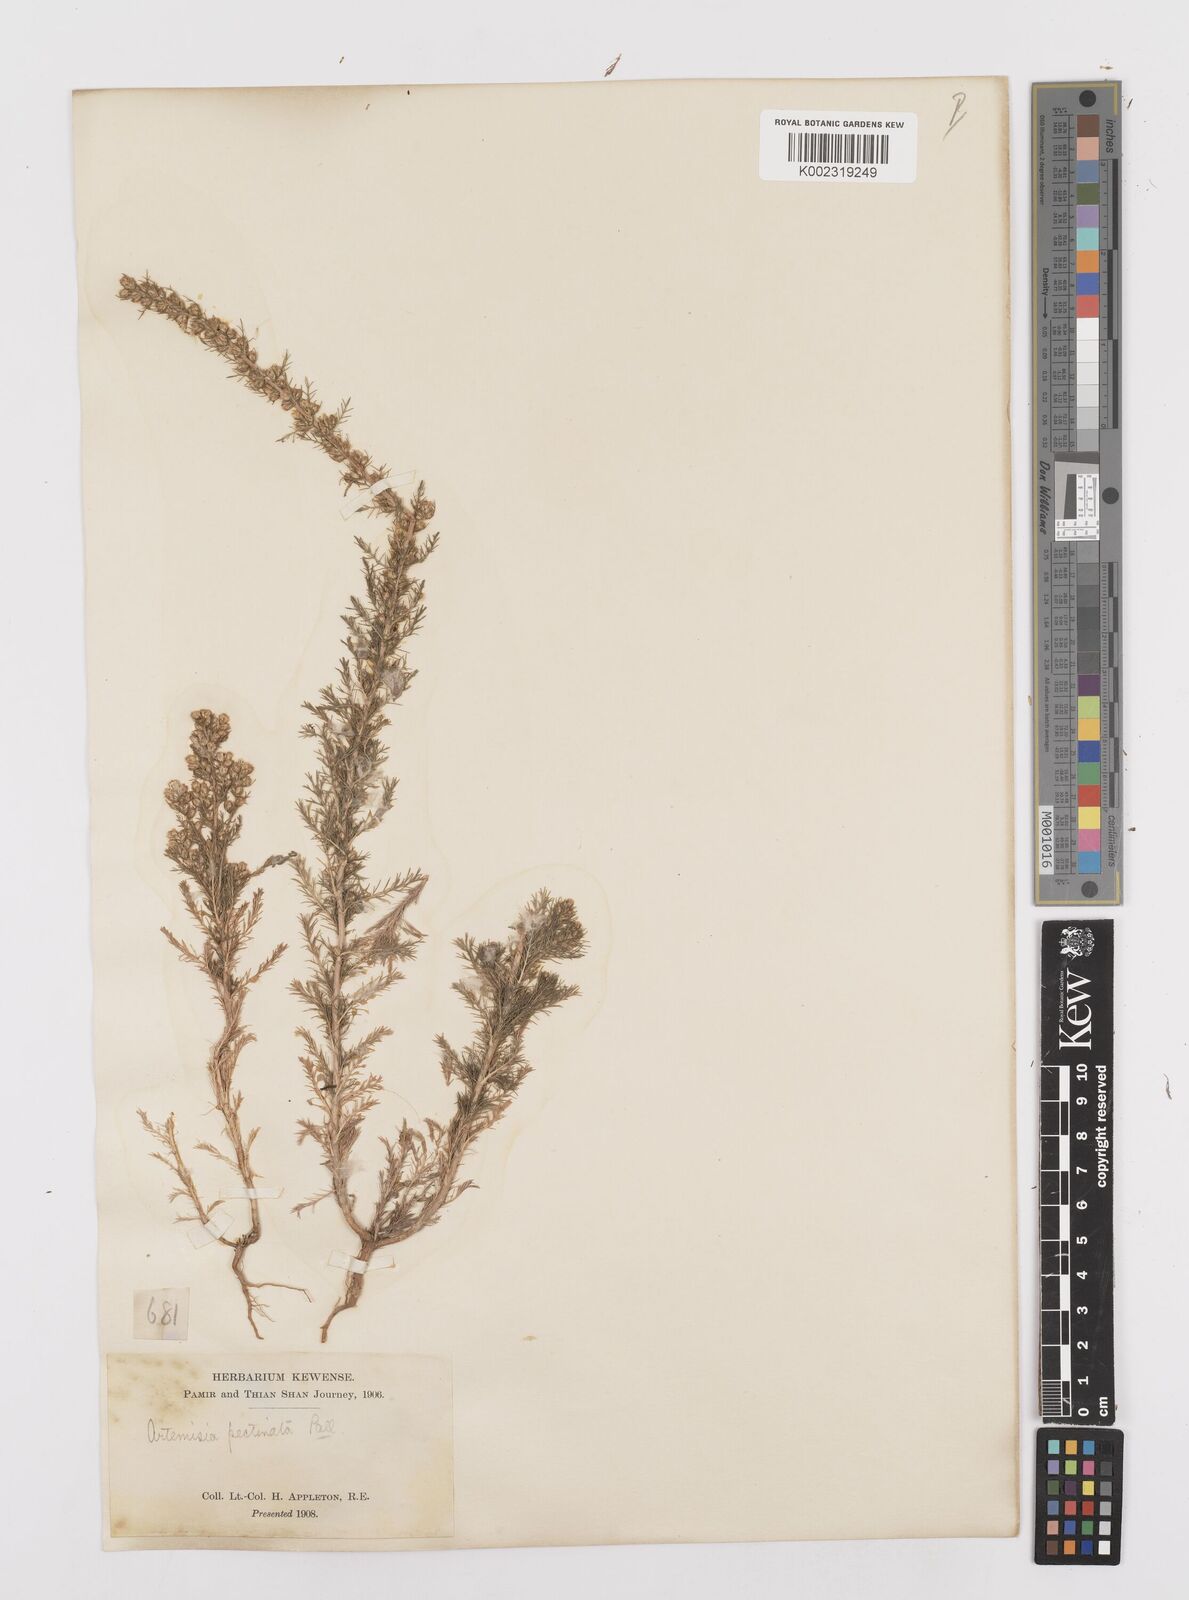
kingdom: Plantae
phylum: Tracheophyta
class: Magnoliopsida
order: Asterales
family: Asteraceae
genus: Neopallasia
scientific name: Neopallasia pectinata
